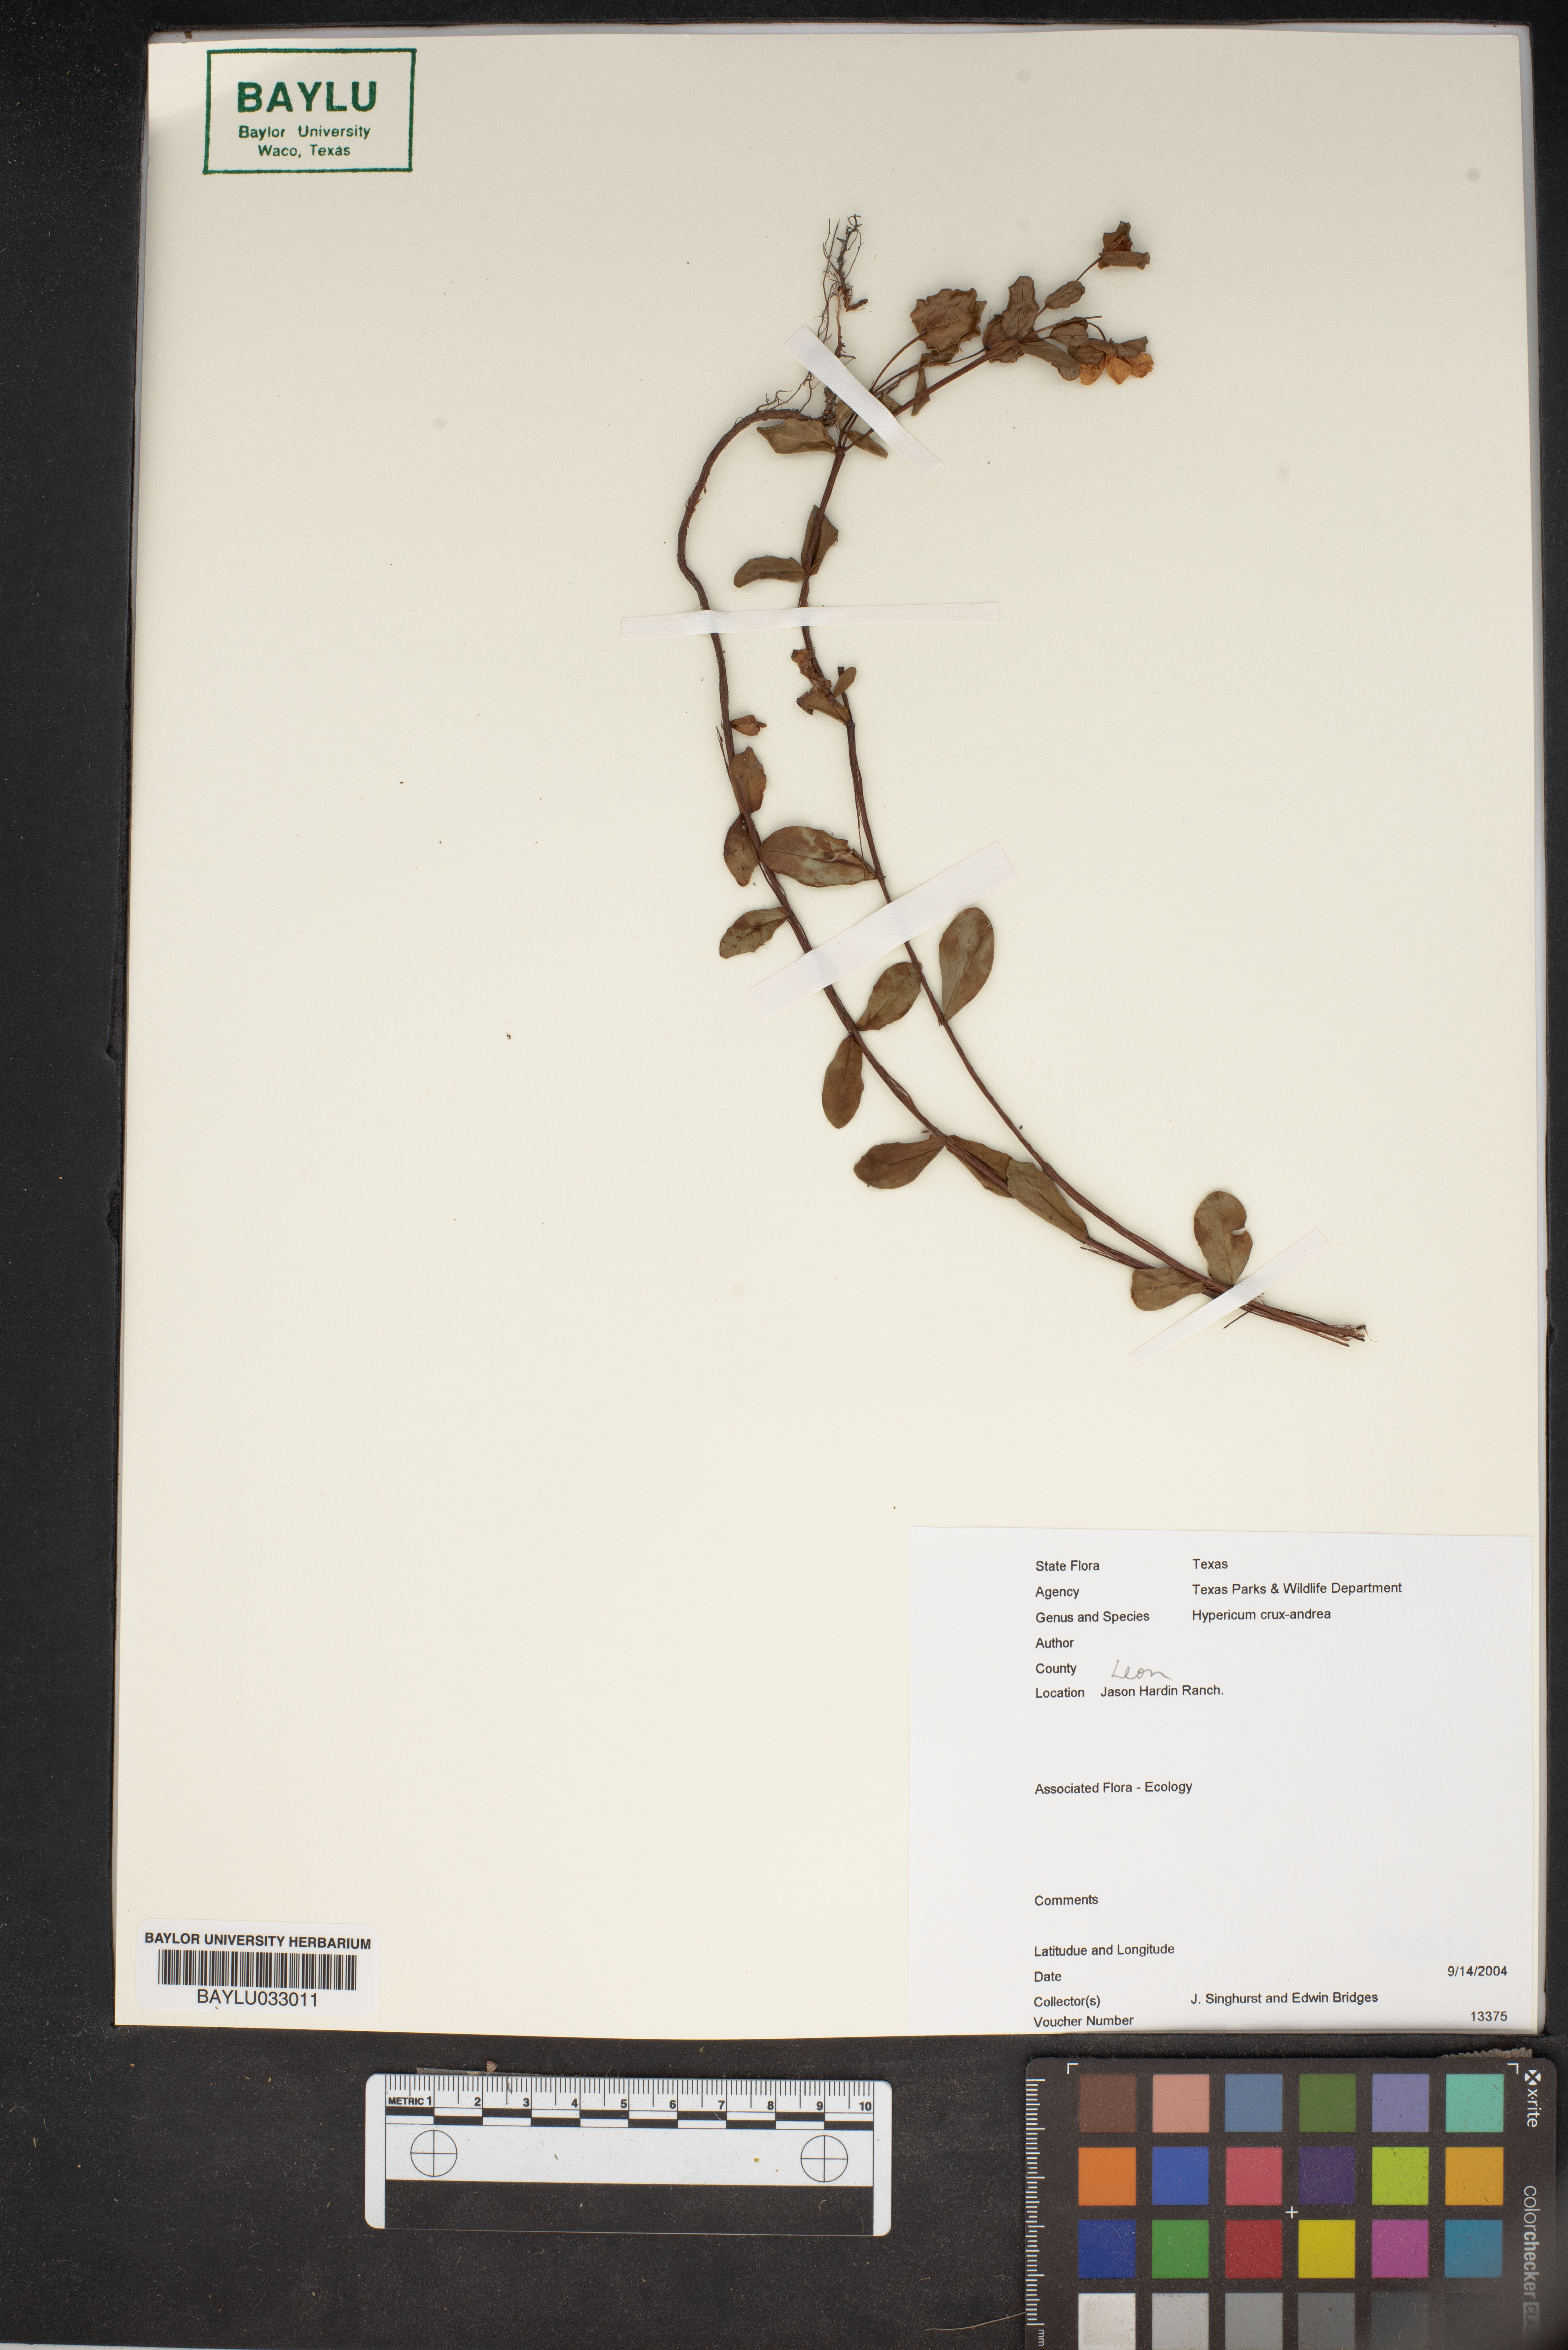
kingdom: Plantae
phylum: Tracheophyta
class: Magnoliopsida
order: Malpighiales
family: Hypericaceae
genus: Hypericum
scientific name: Hypericum crux-andreae
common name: St.-peter's-wort
